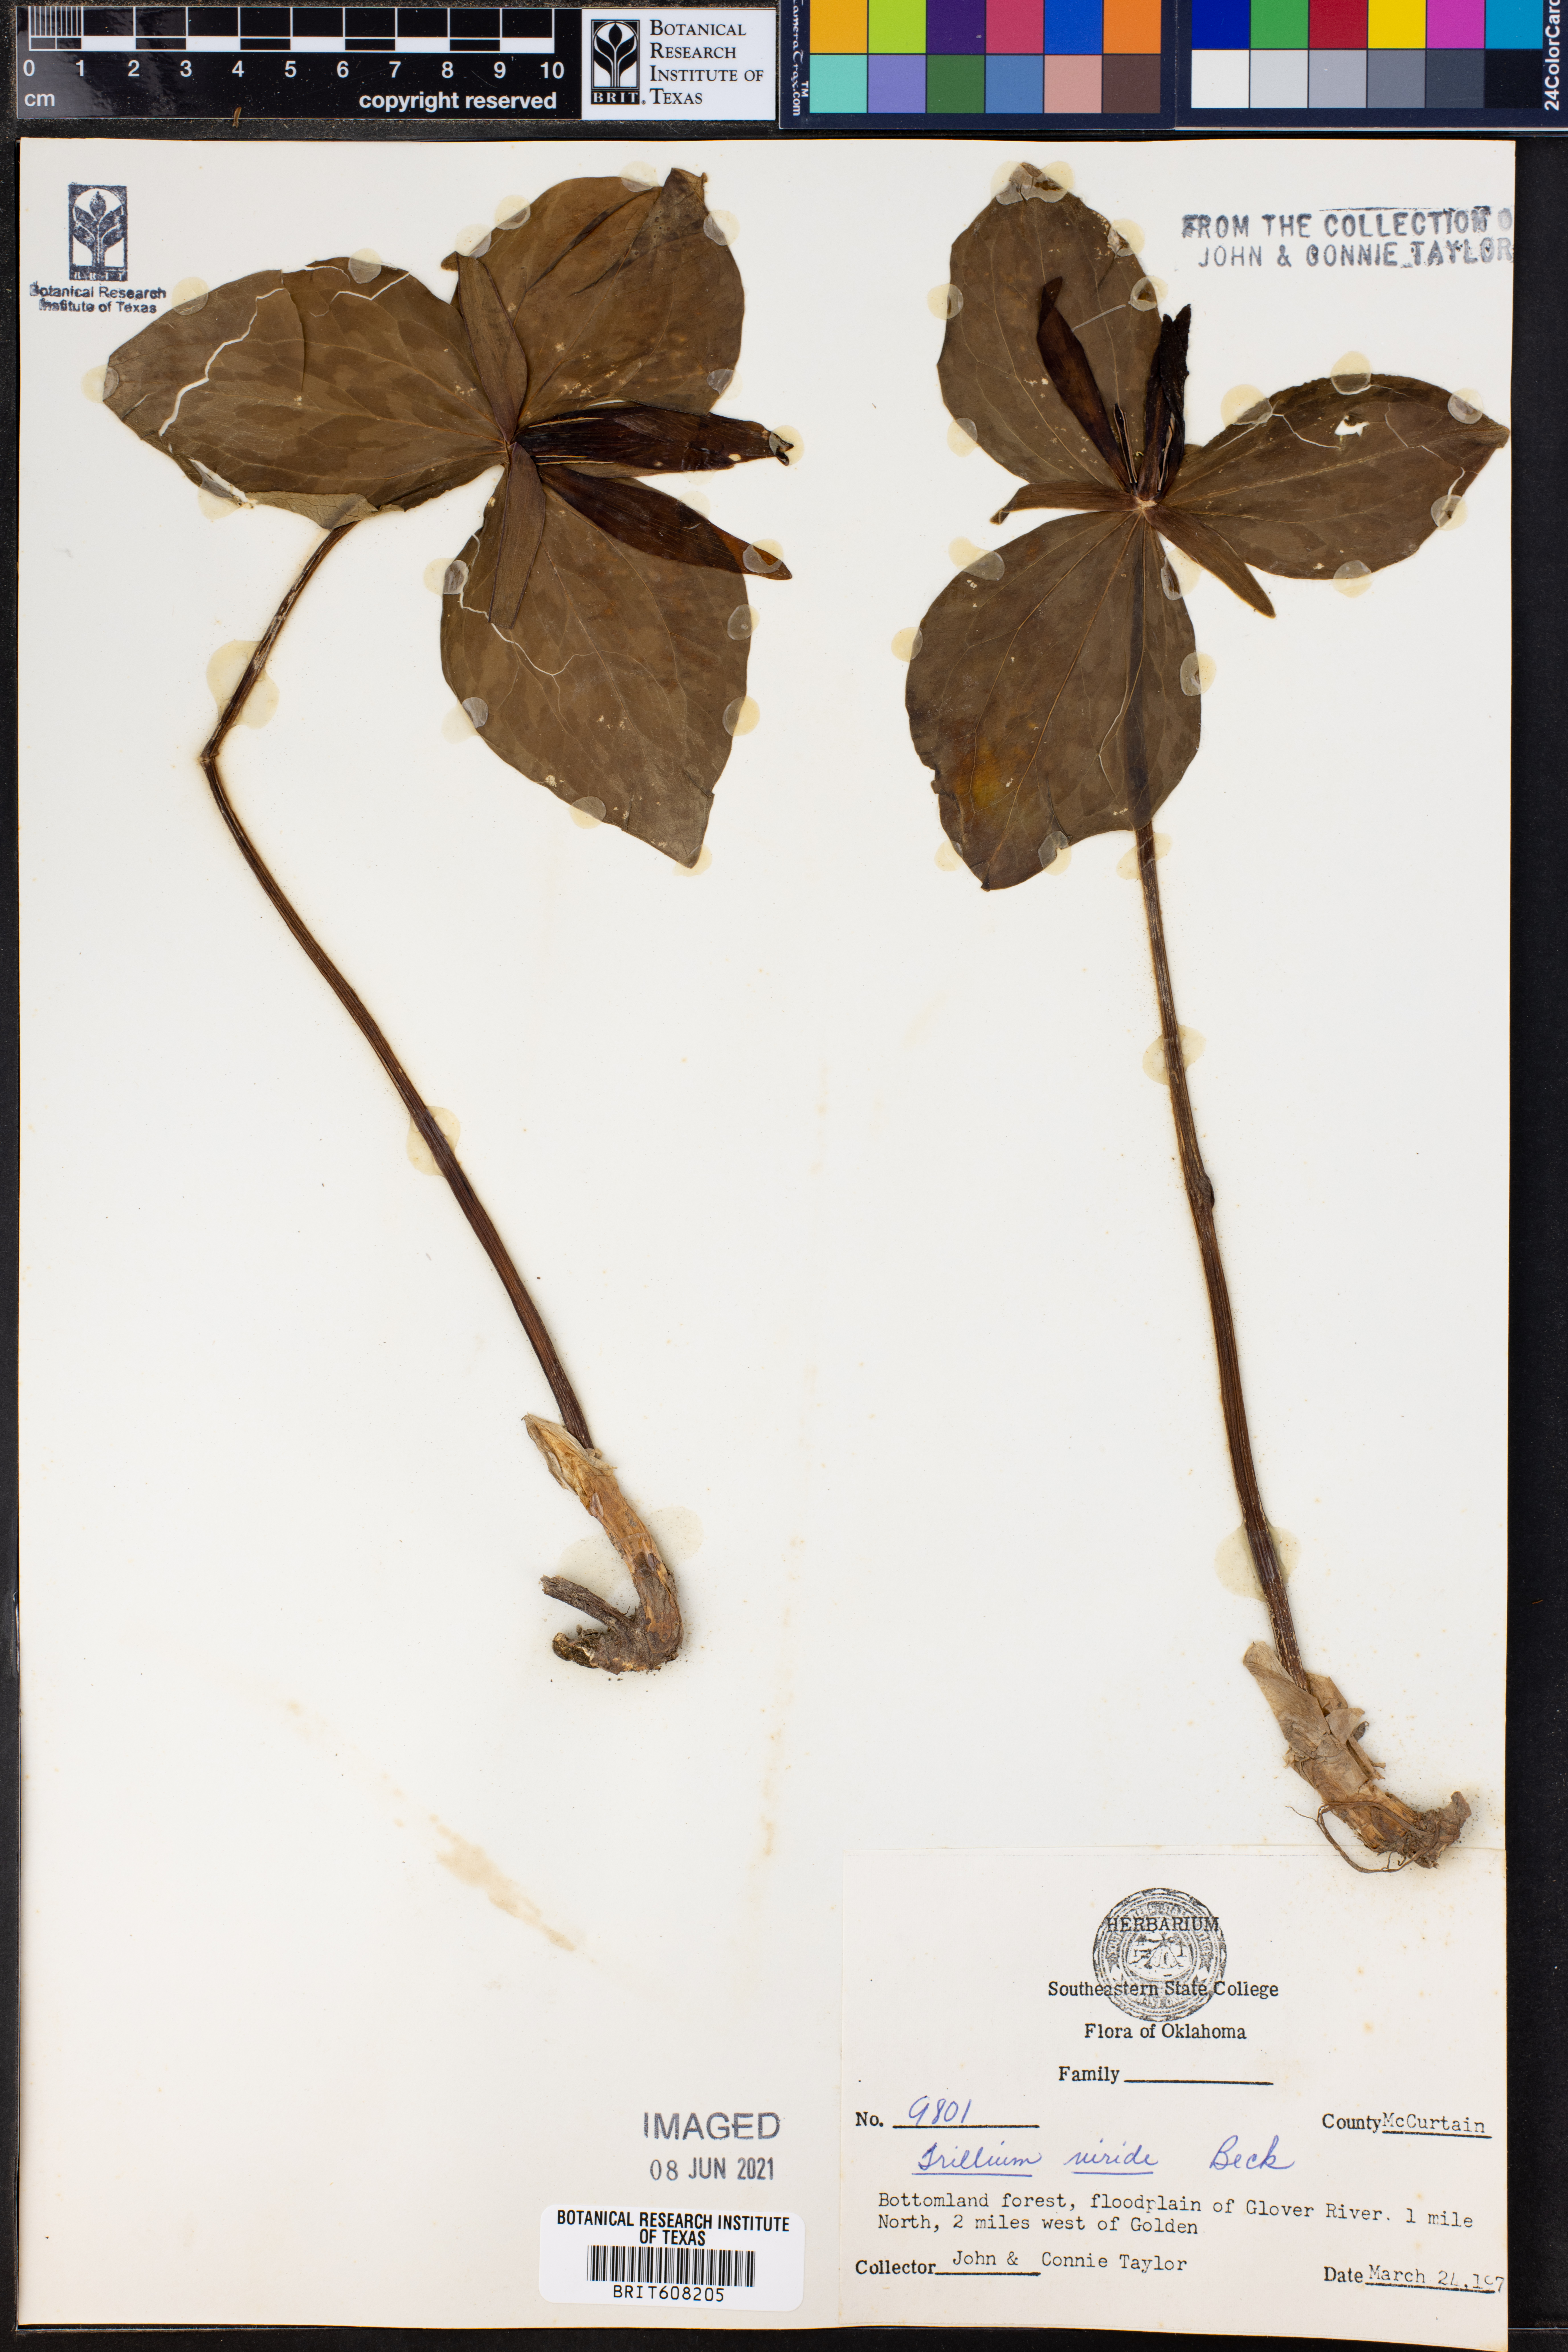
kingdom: Plantae
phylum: Tracheophyta
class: Liliopsida
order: Liliales
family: Melanthiaceae
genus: Trillium
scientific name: Trillium viride
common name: Green trillium
